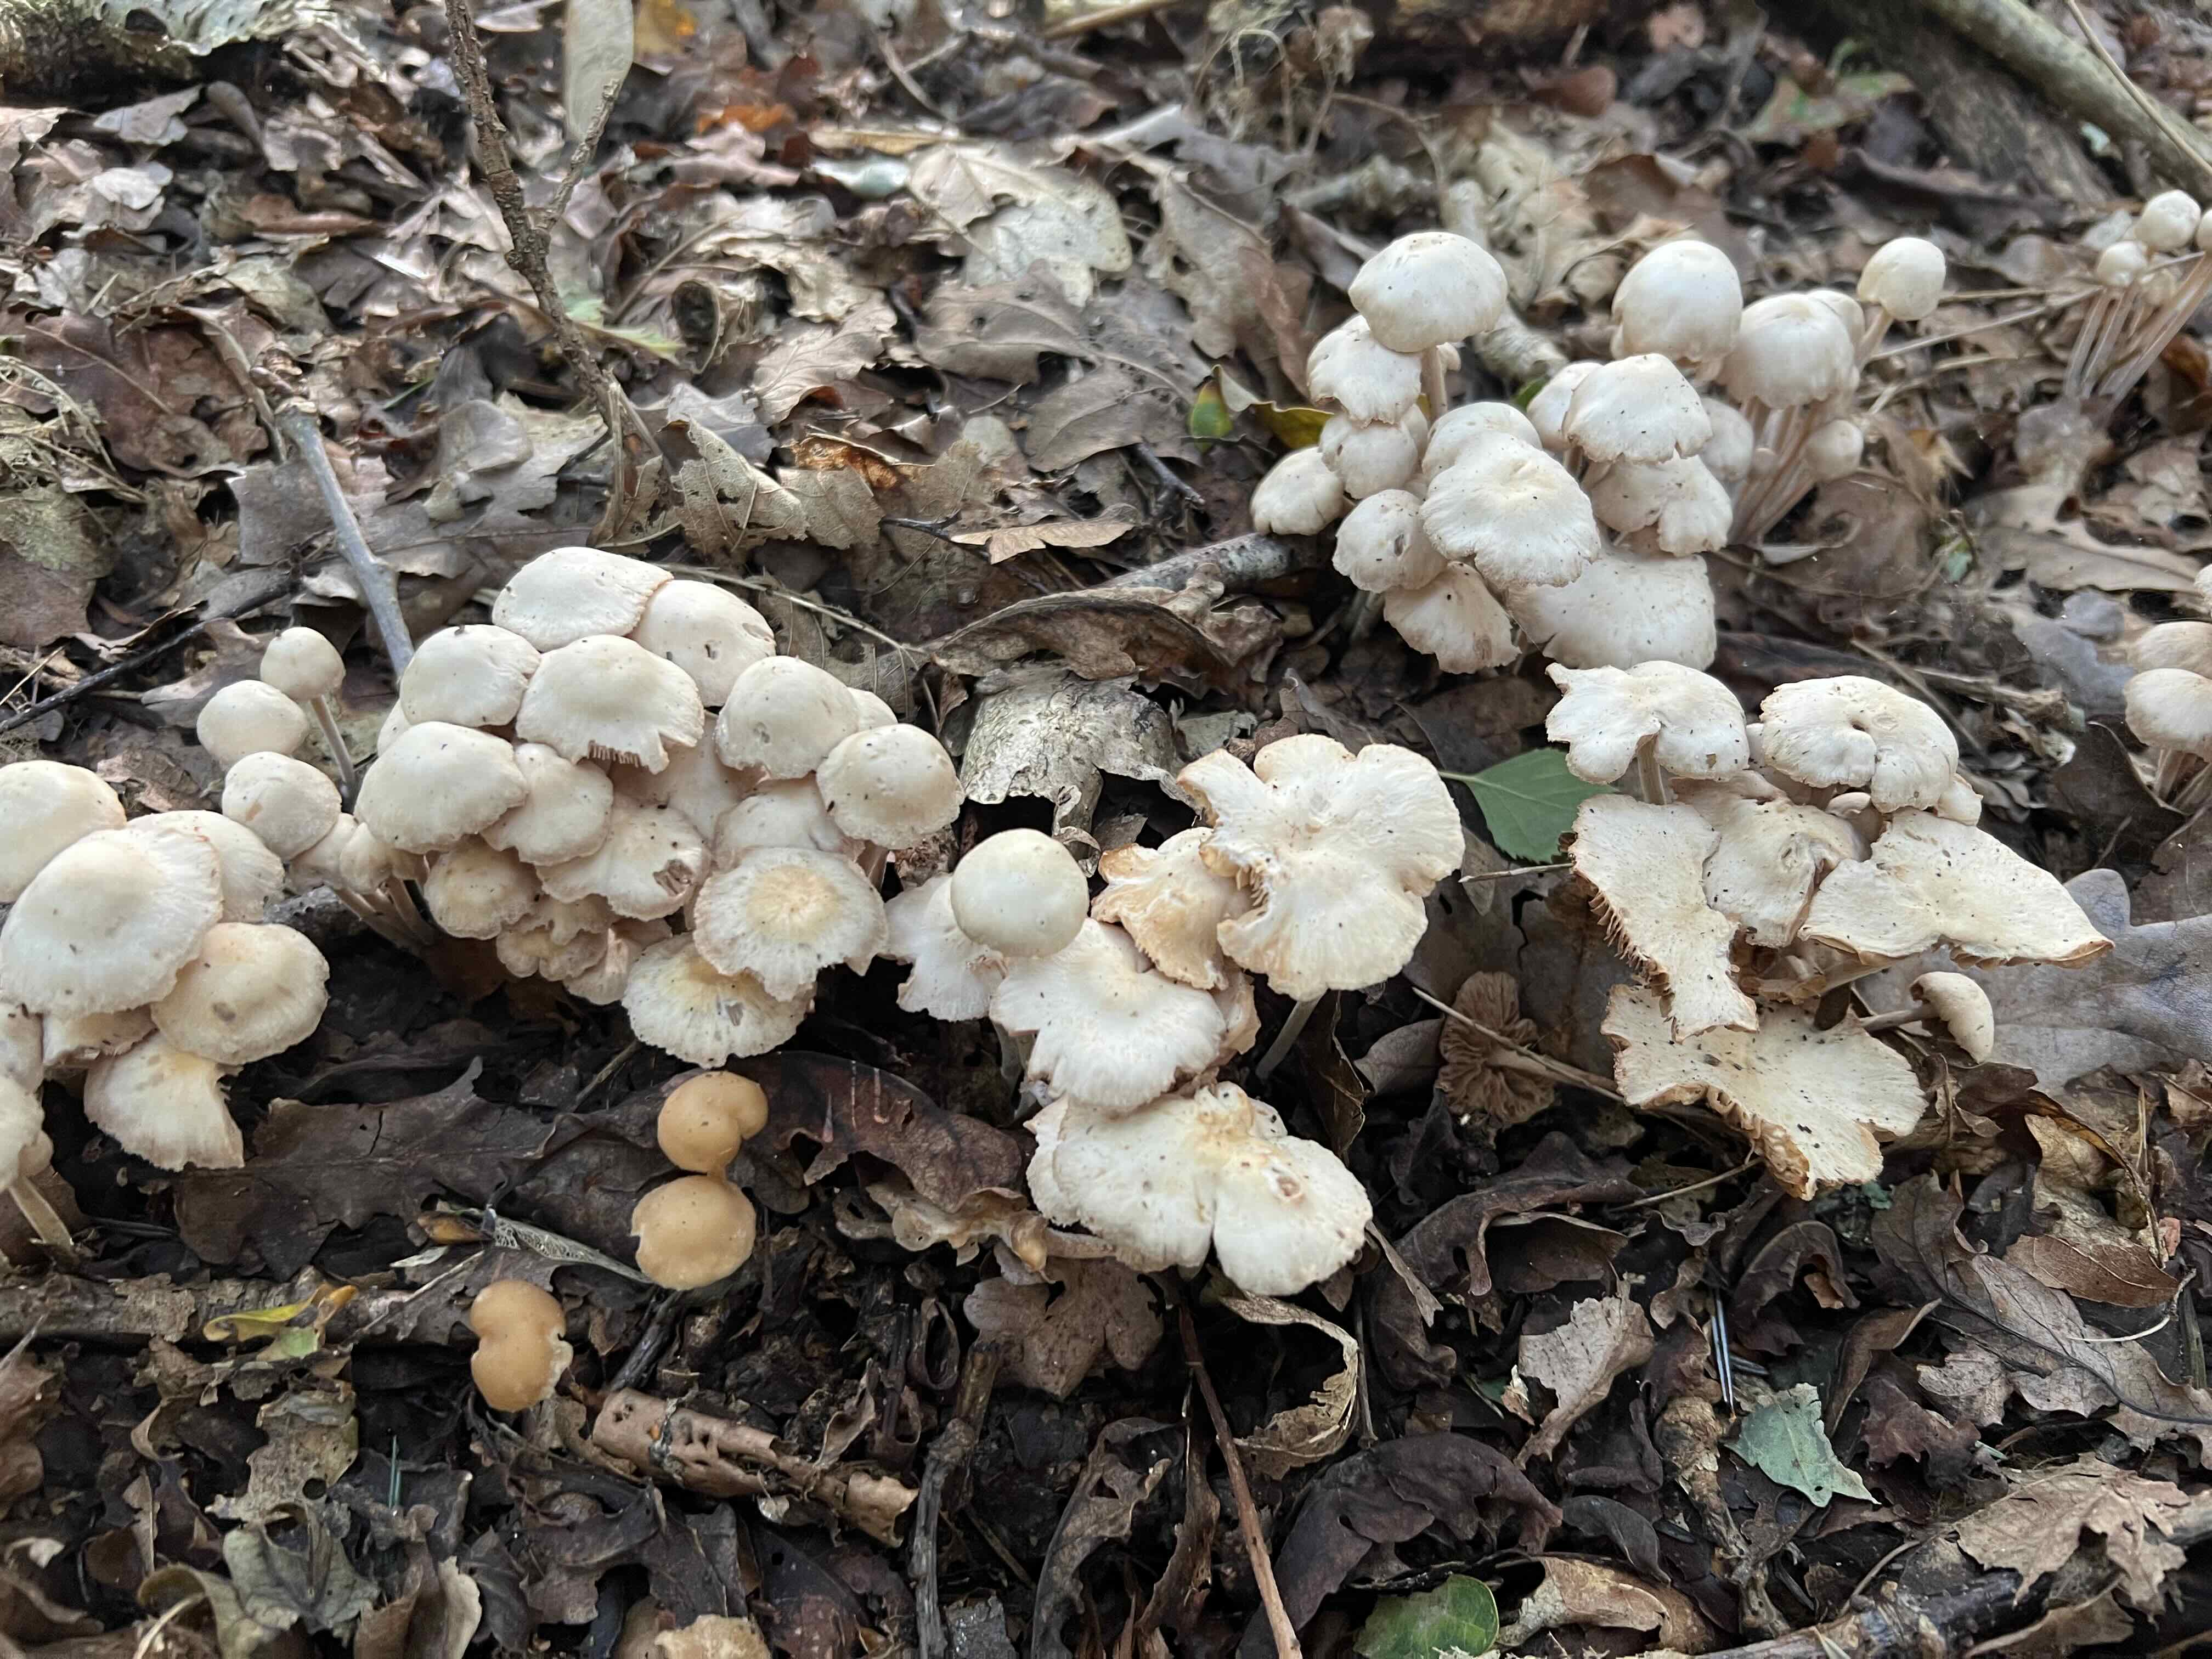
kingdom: Fungi
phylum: Basidiomycota
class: Agaricomycetes
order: Agaricales
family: Omphalotaceae
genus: Collybiopsis
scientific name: Collybiopsis confluens
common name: knippe-fladhat
